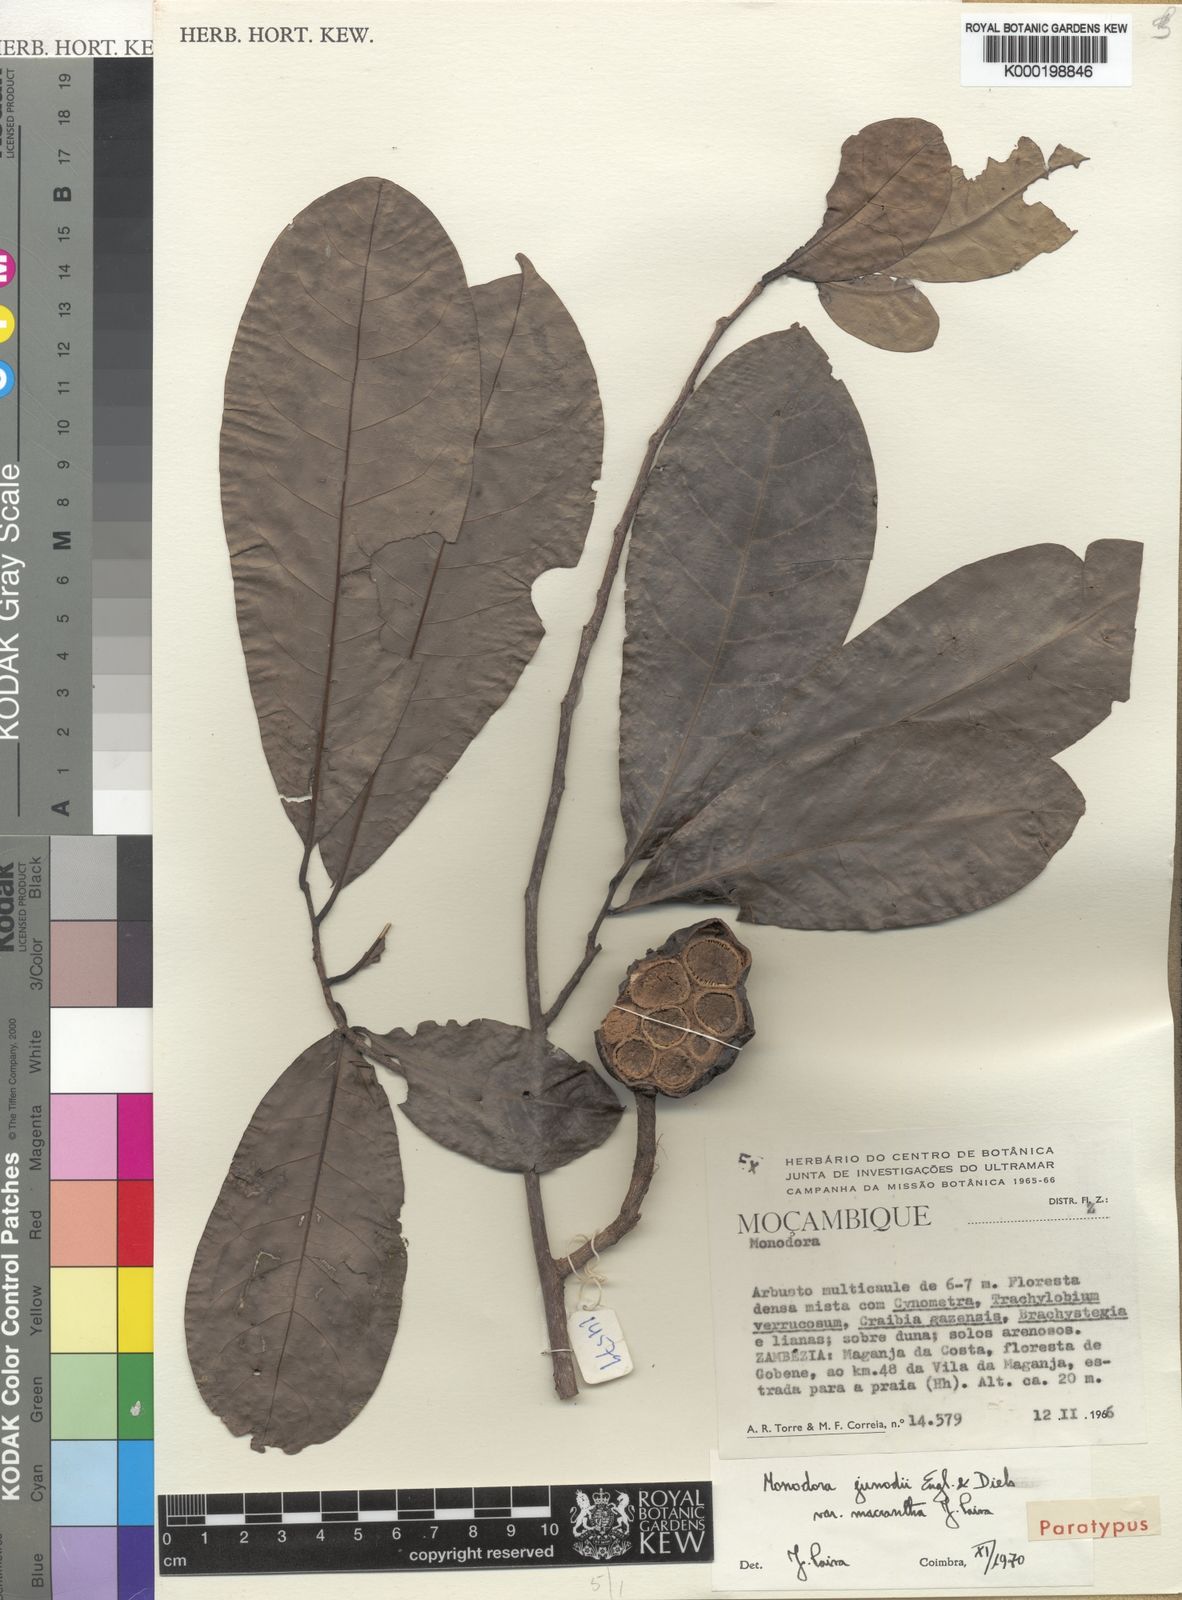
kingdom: Plantae
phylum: Tracheophyta
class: Magnoliopsida
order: Magnoliales
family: Annonaceae
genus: Monodora
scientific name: Monodora junodii
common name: Green-apple
